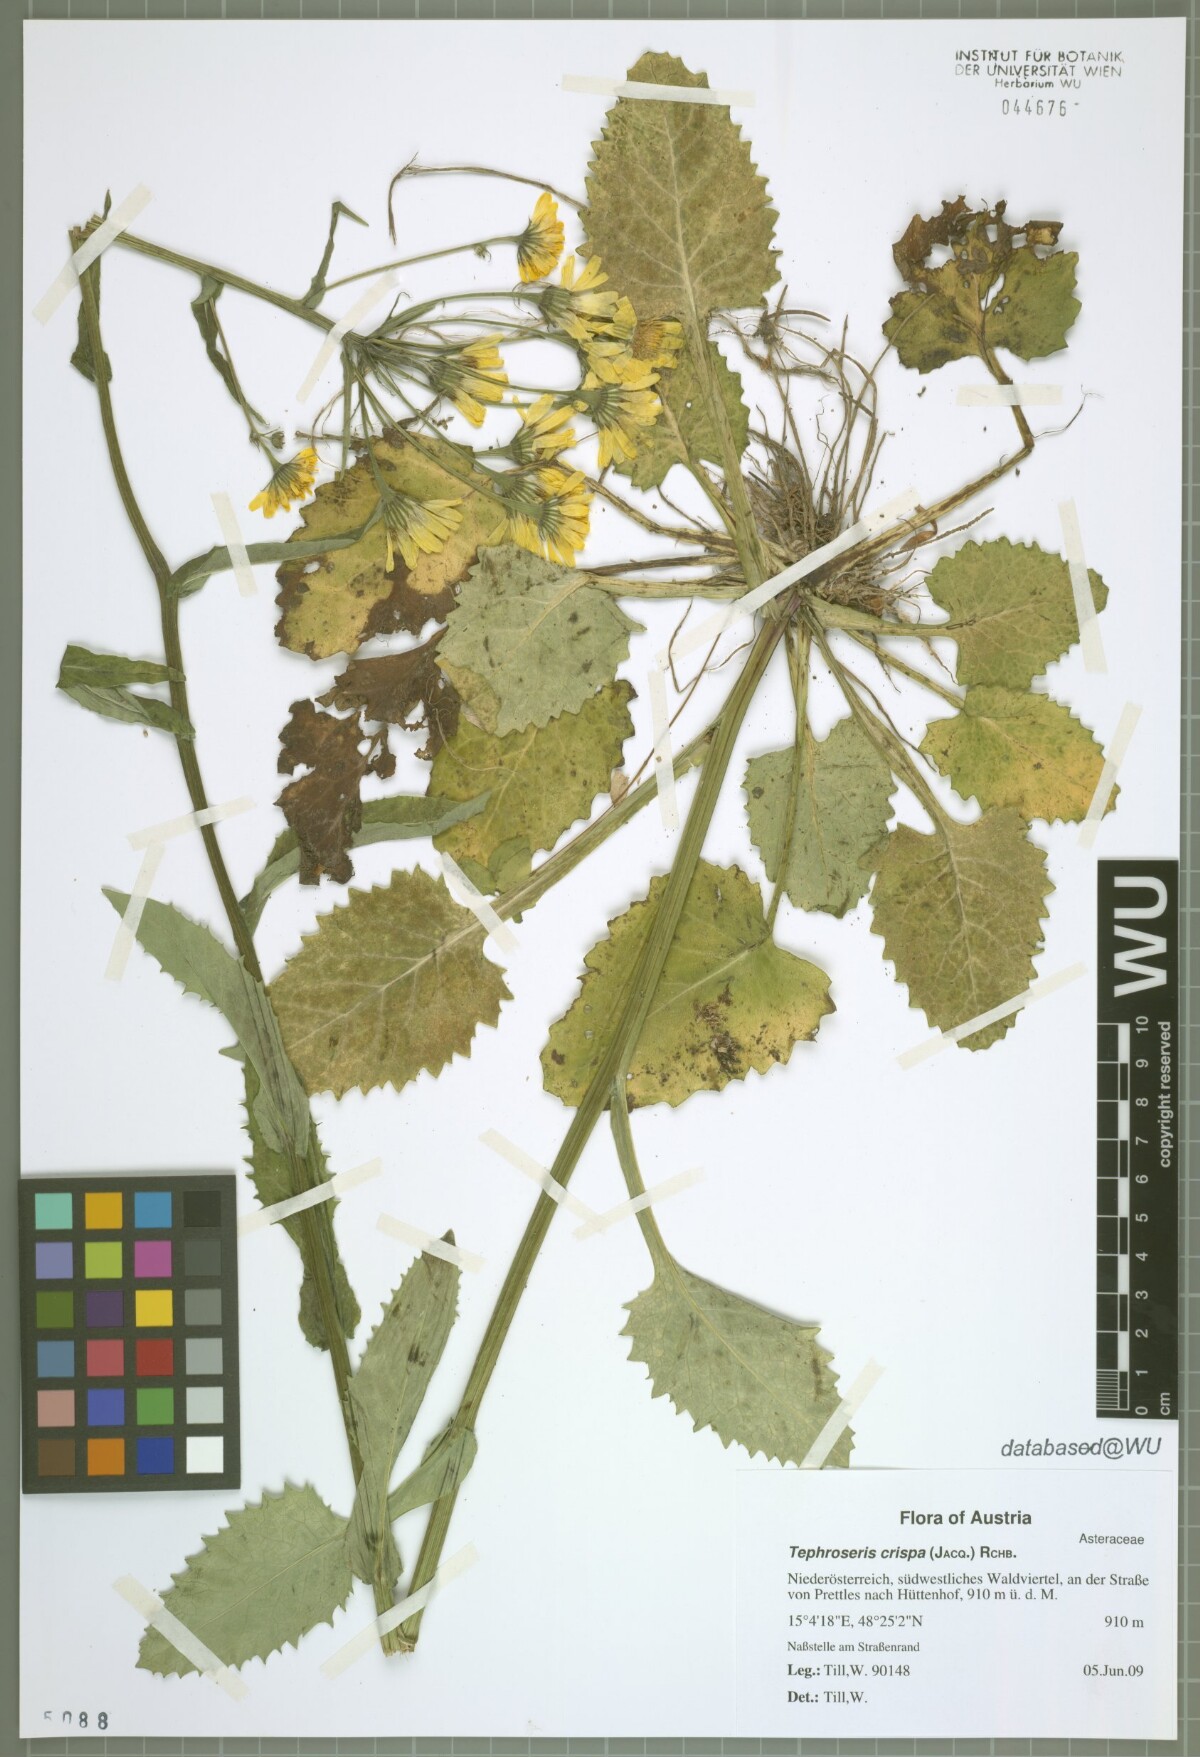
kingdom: Plantae
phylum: Tracheophyta
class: Magnoliopsida
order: Asterales
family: Asteraceae
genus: Tephroseris
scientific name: Tephroseris crispa
